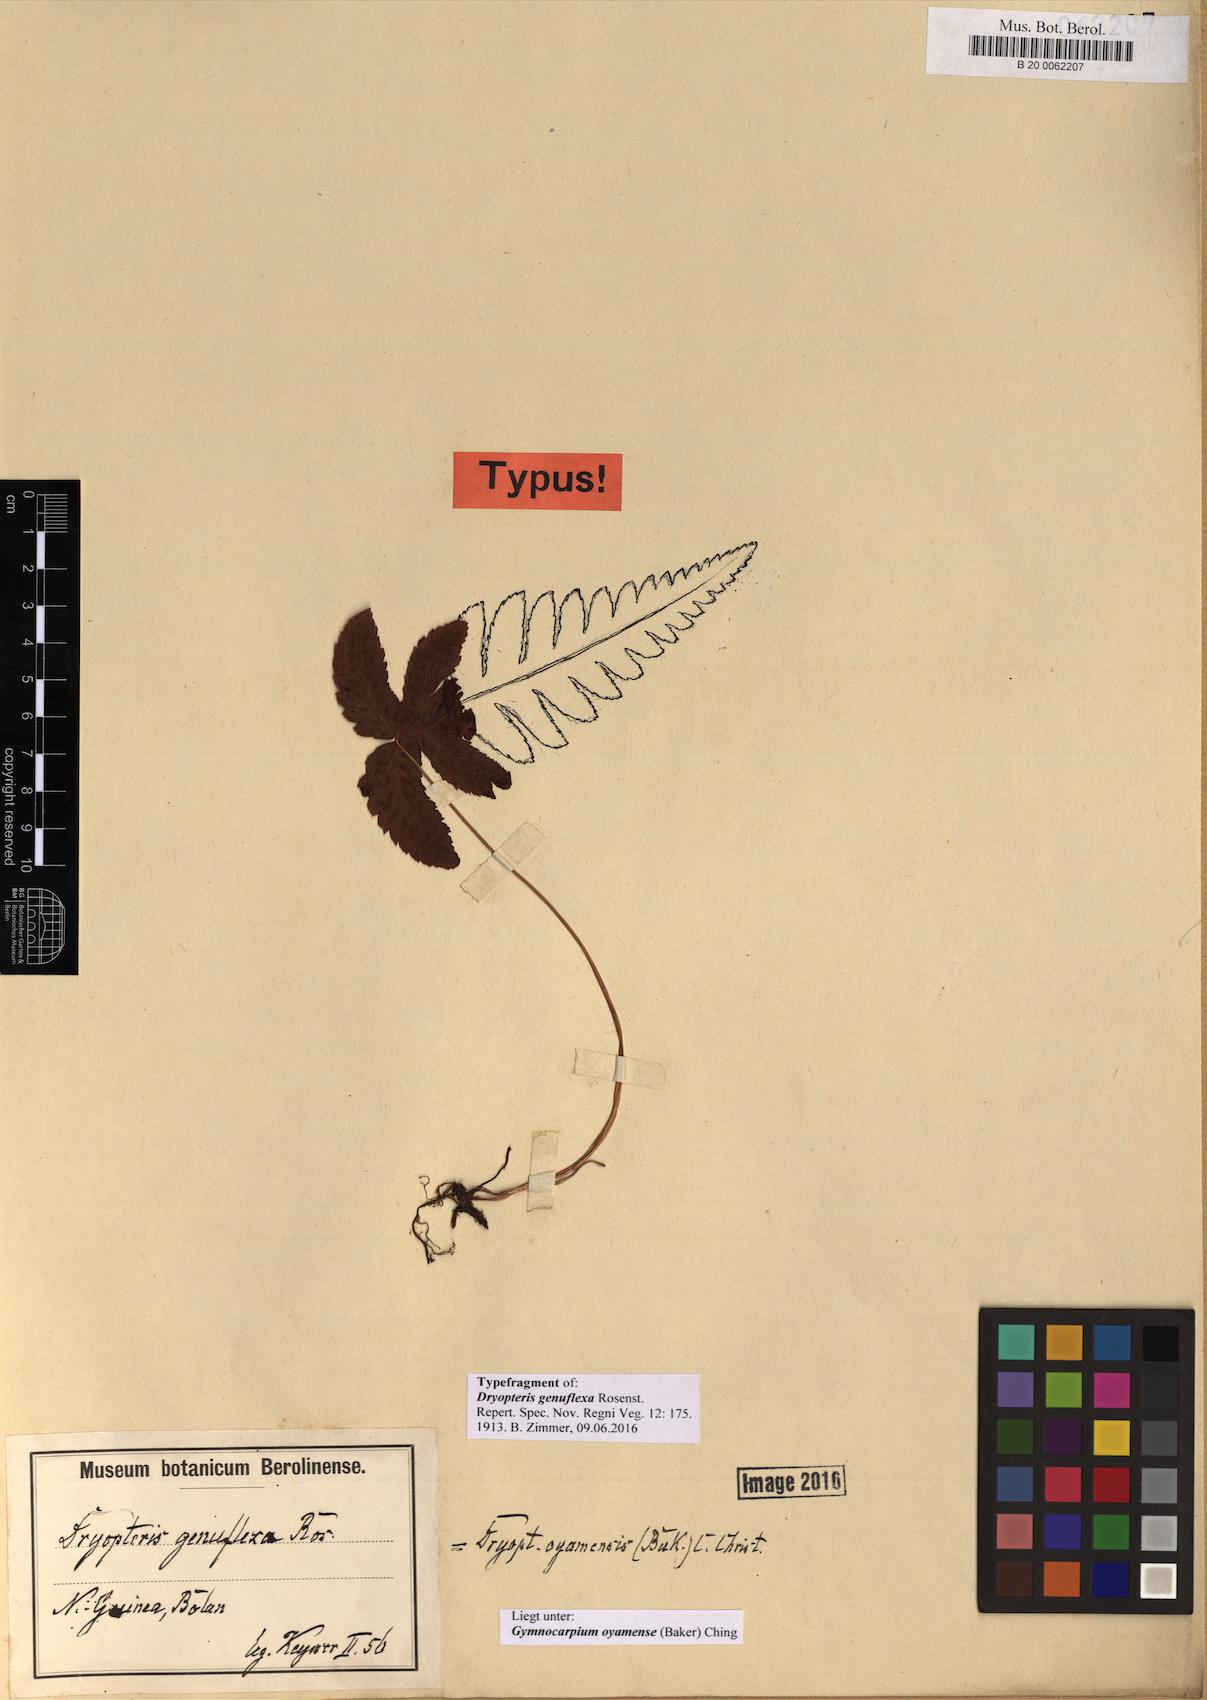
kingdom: Plantae
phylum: Tracheophyta
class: Polypodiopsida
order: Polypodiales
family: Cystopteridaceae
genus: Gymnocarpium
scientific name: Gymnocarpium oyamense
